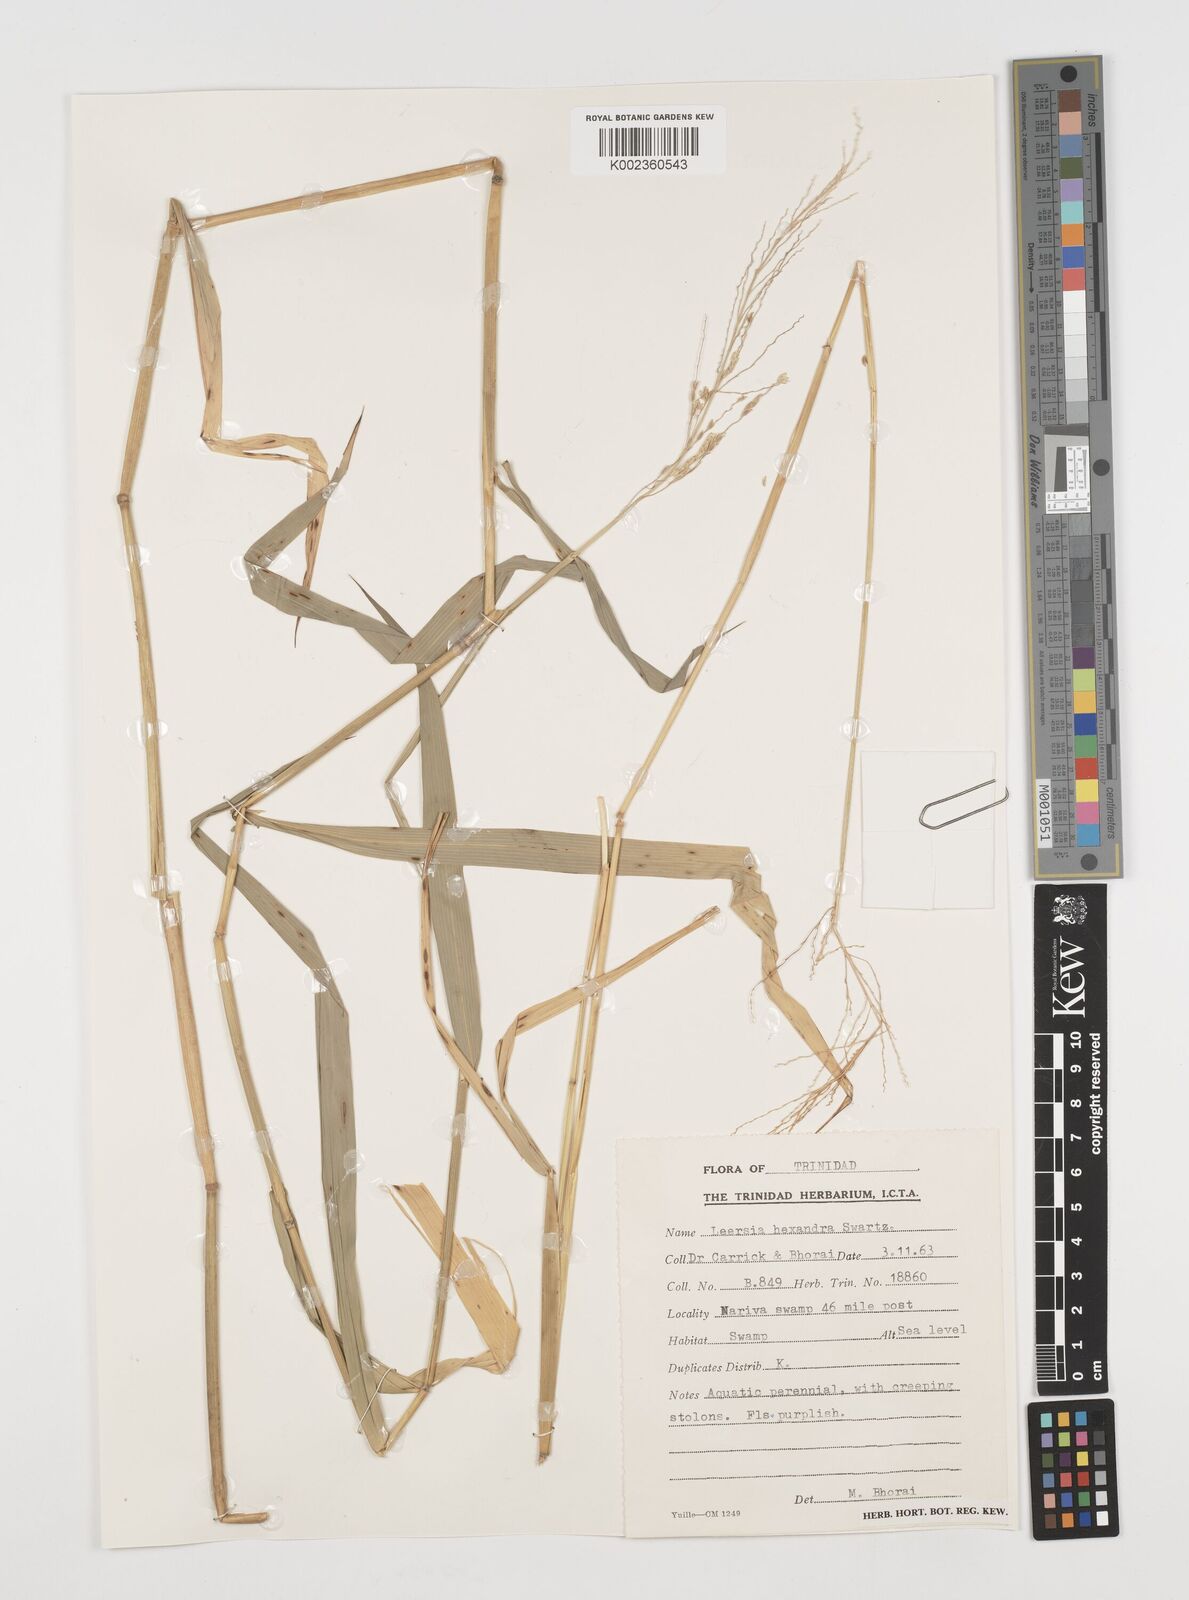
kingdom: Plantae
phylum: Tracheophyta
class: Liliopsida
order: Poales
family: Poaceae
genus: Leersia
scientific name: Leersia hexandra
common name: Southern cut grass
